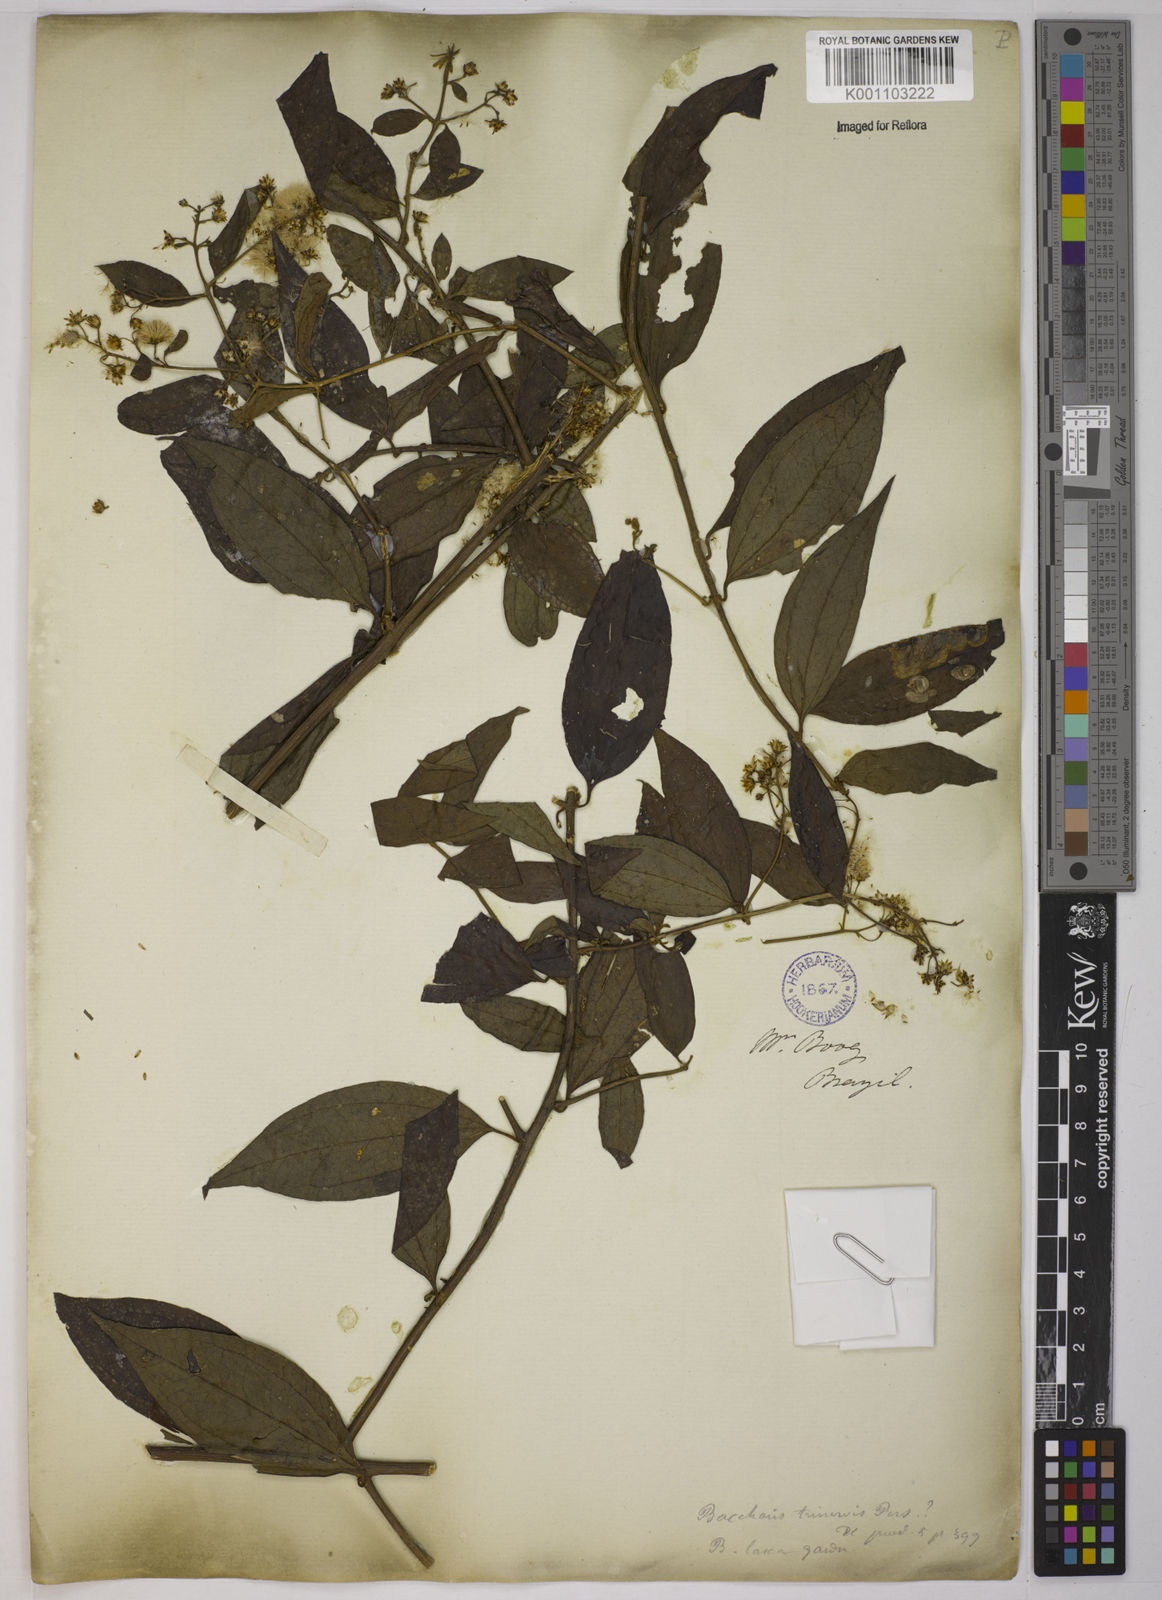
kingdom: Plantae
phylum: Tracheophyta
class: Magnoliopsida
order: Asterales
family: Asteraceae
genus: Baccharis
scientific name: Baccharis trinervis
